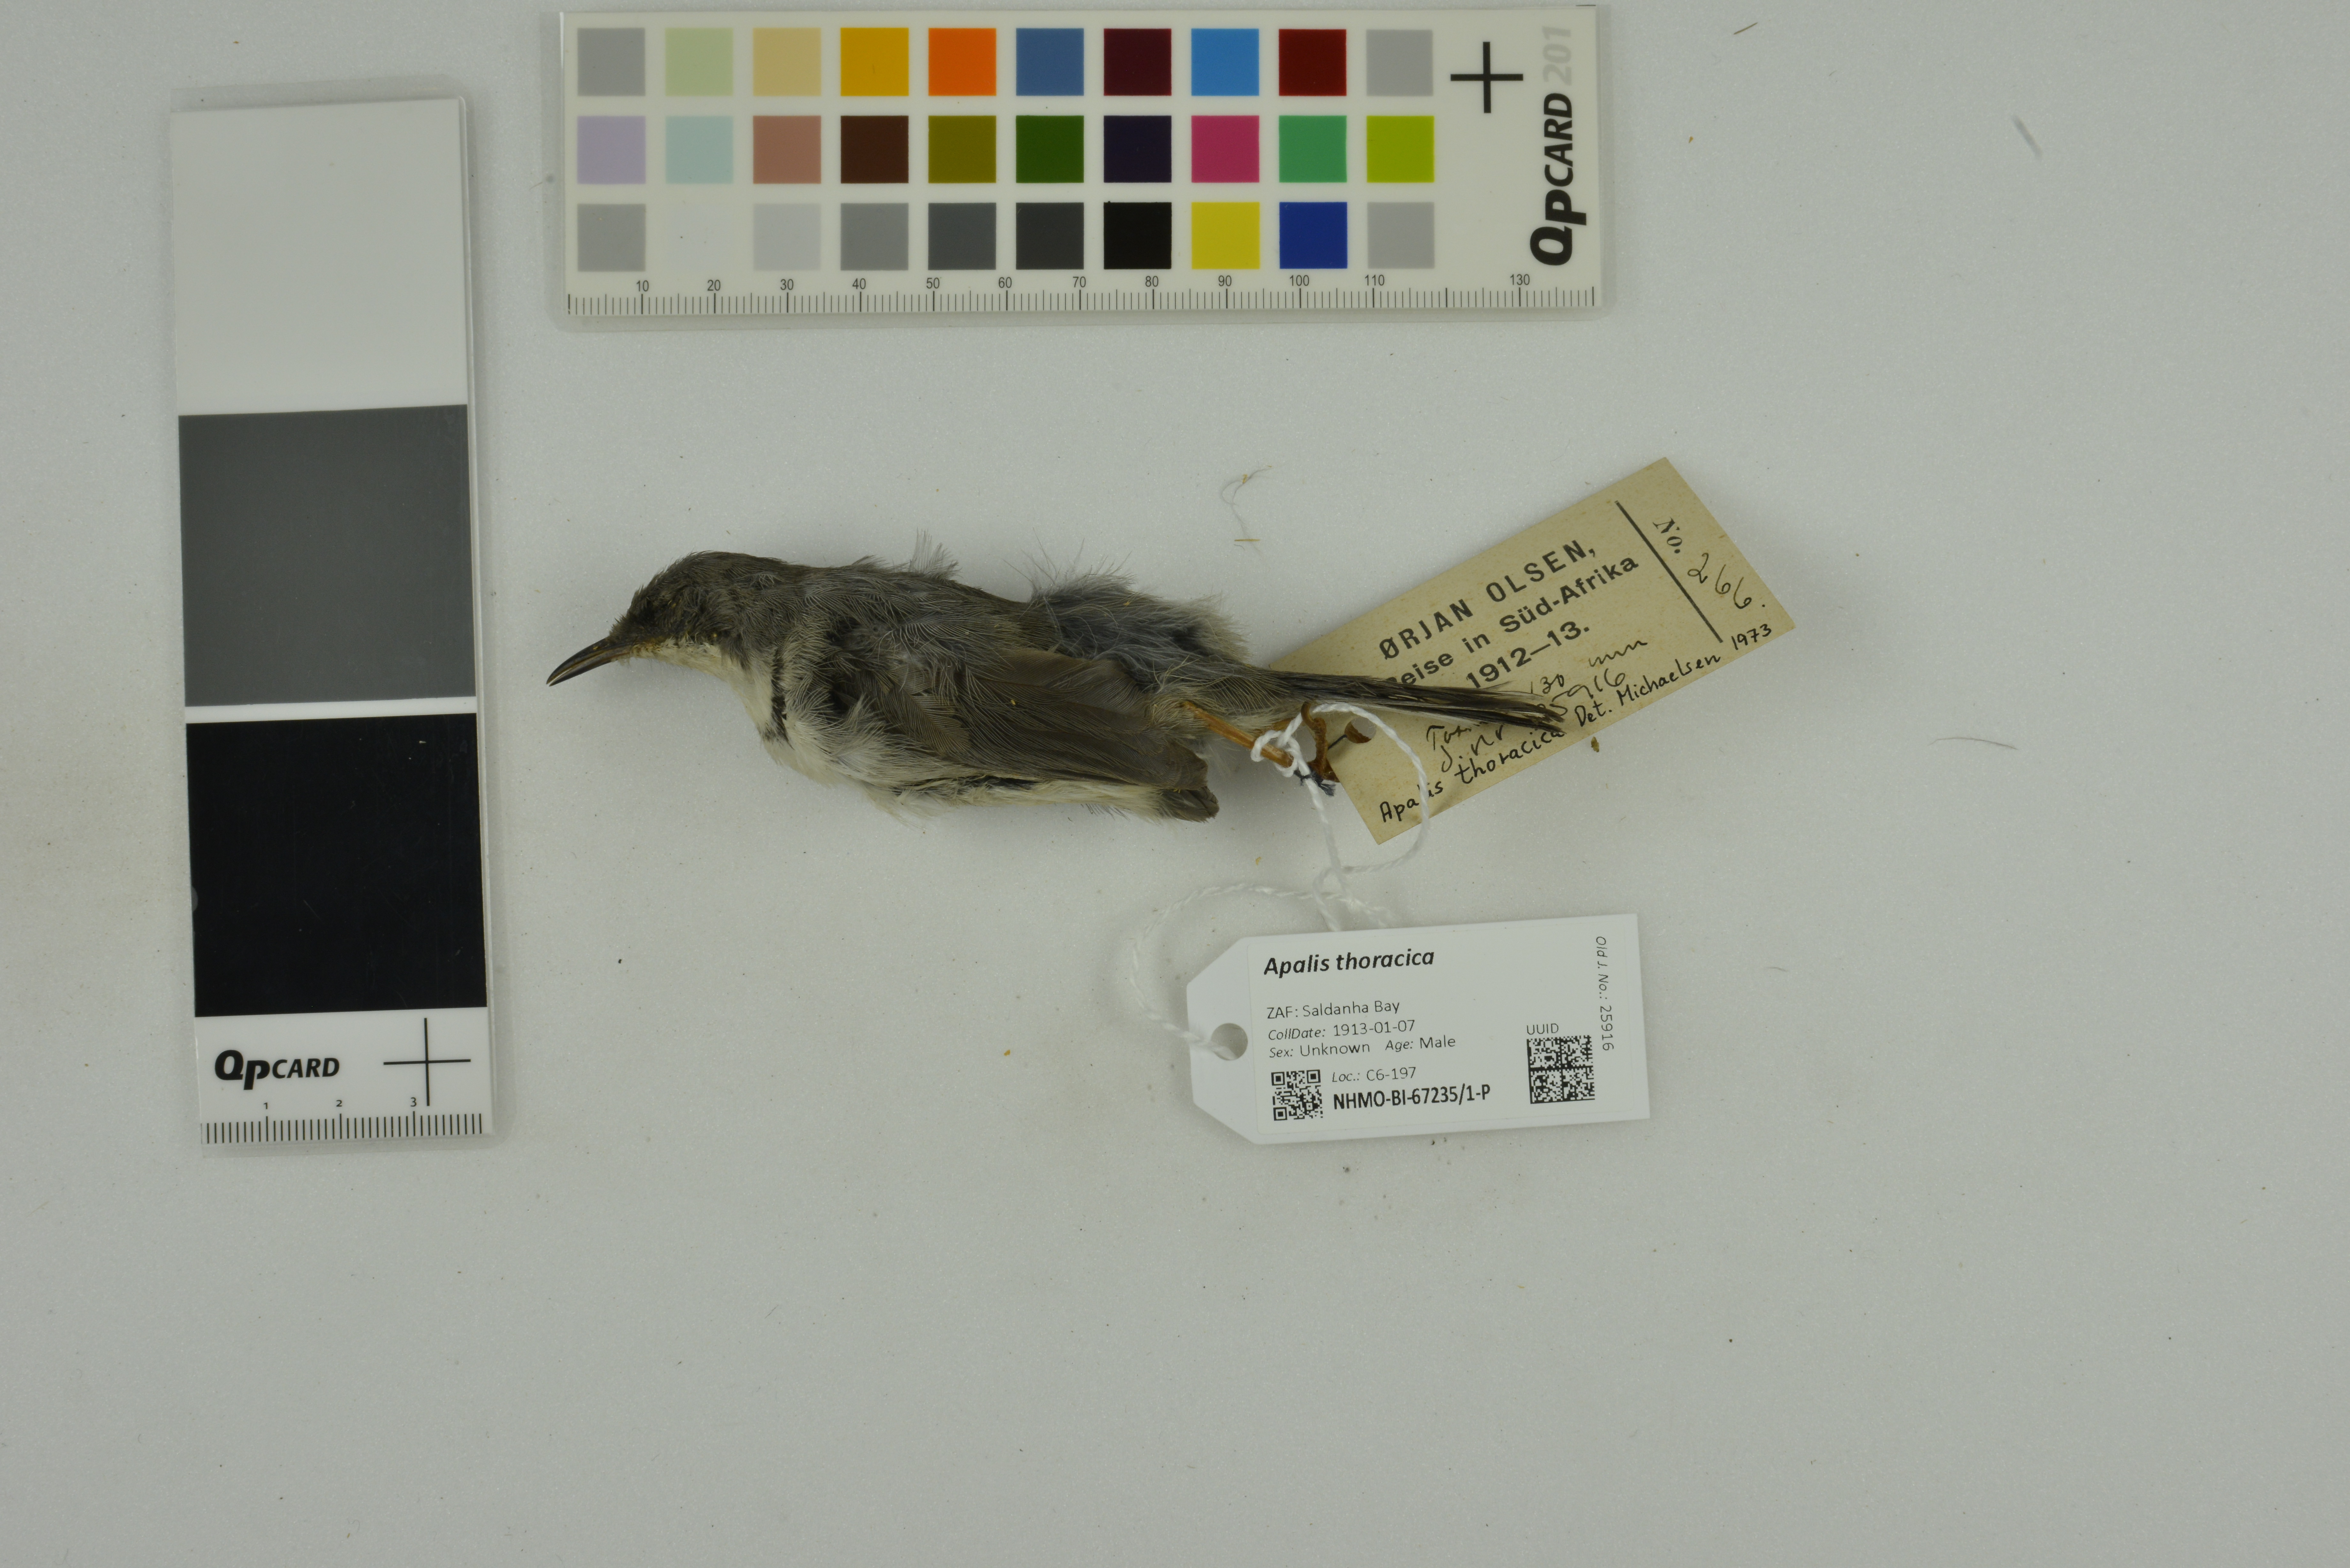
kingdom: Animalia
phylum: Chordata
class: Aves
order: Passeriformes
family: Cisticolidae
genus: Apalis
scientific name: Apalis thoracica
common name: Bar-throated apalis
